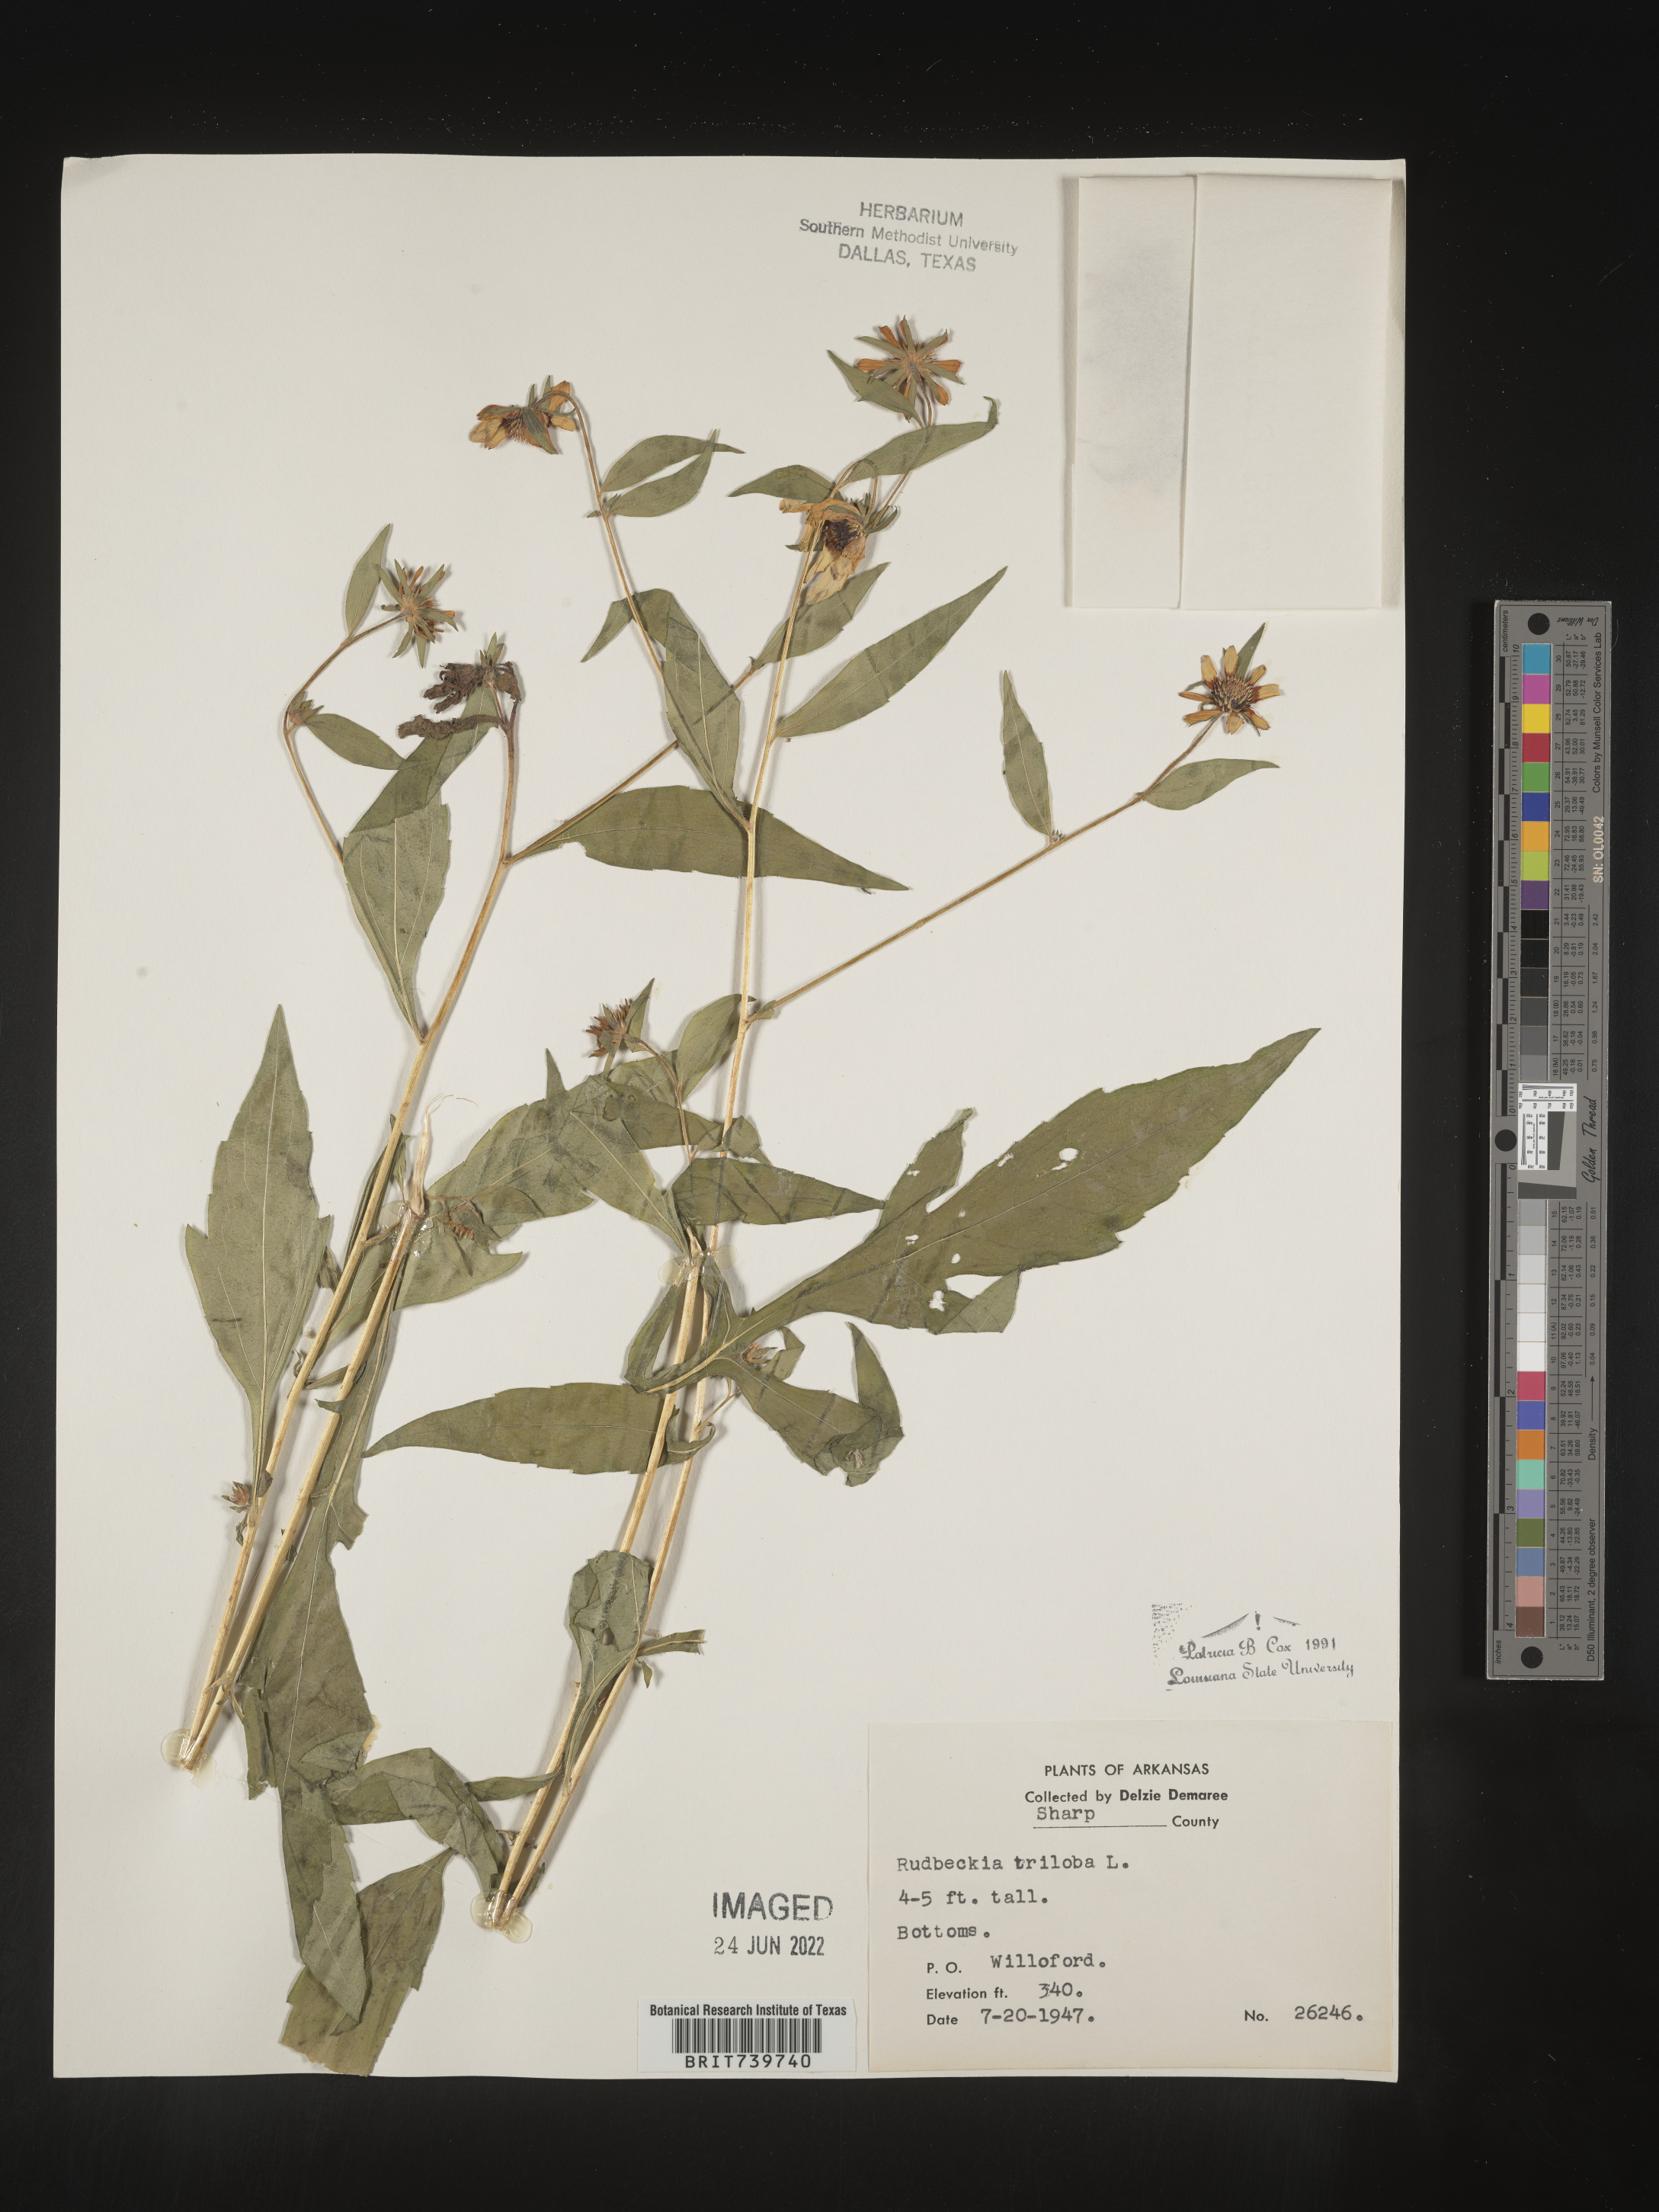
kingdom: Plantae
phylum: Tracheophyta
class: Magnoliopsida
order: Asterales
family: Asteraceae
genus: Rudbeckia
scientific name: Rudbeckia triloba
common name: Thin-leaved coneflower
